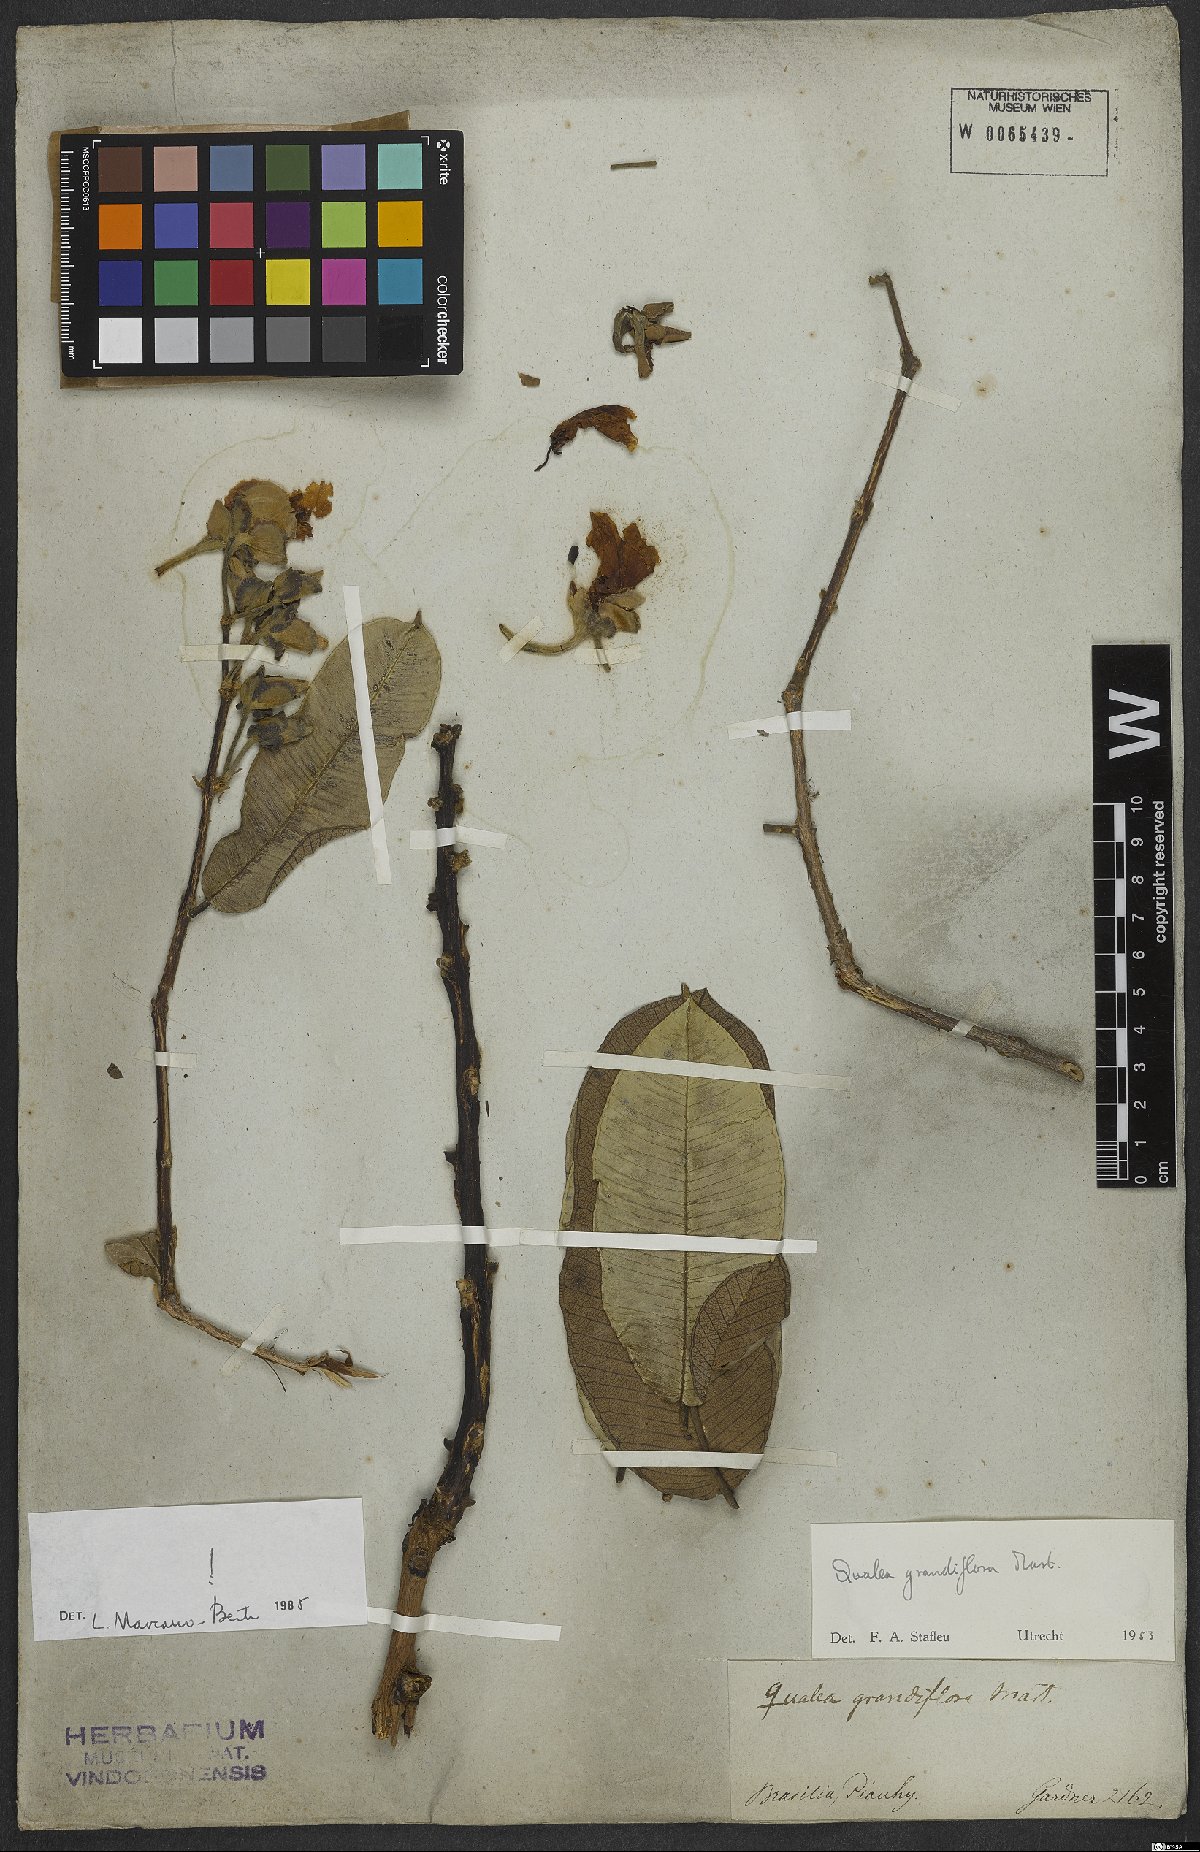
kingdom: Plantae
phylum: Tracheophyta
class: Magnoliopsida
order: Myrtales
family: Vochysiaceae
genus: Qualea
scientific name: Qualea grandiflora
